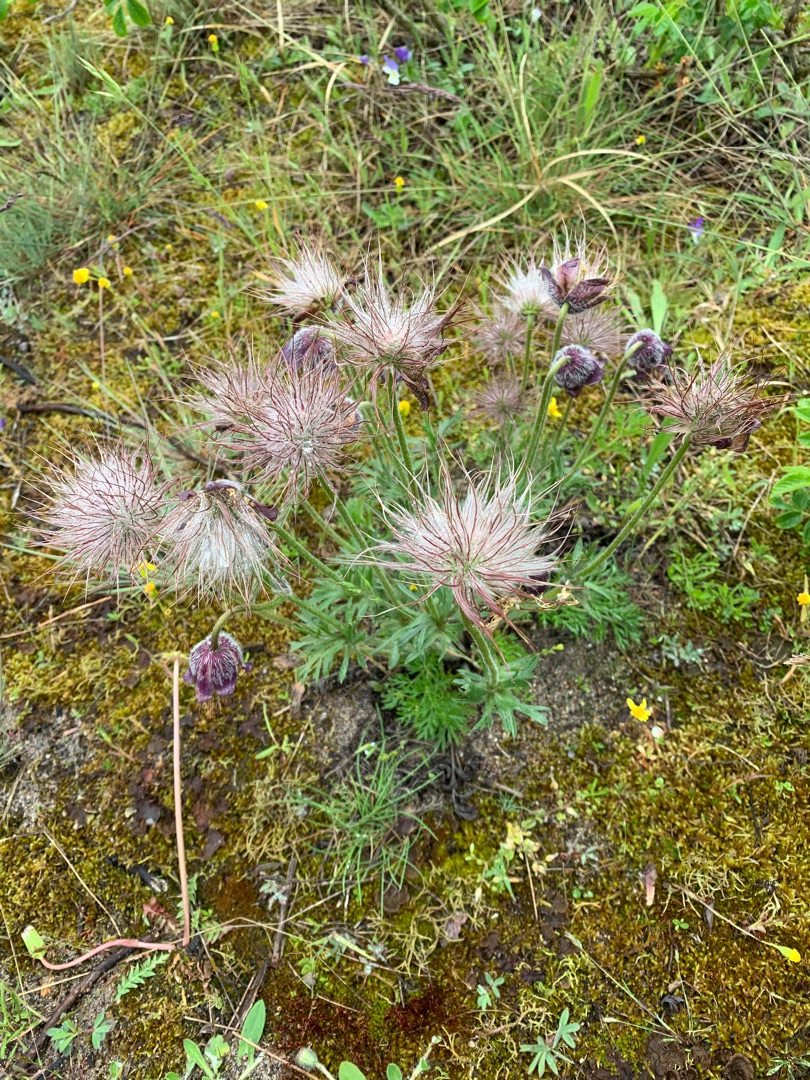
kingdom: Plantae
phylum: Tracheophyta
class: Magnoliopsida
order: Ranunculales
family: Ranunculaceae
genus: Pulsatilla
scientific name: Pulsatilla pratensis
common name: Nikkende kobjælde
